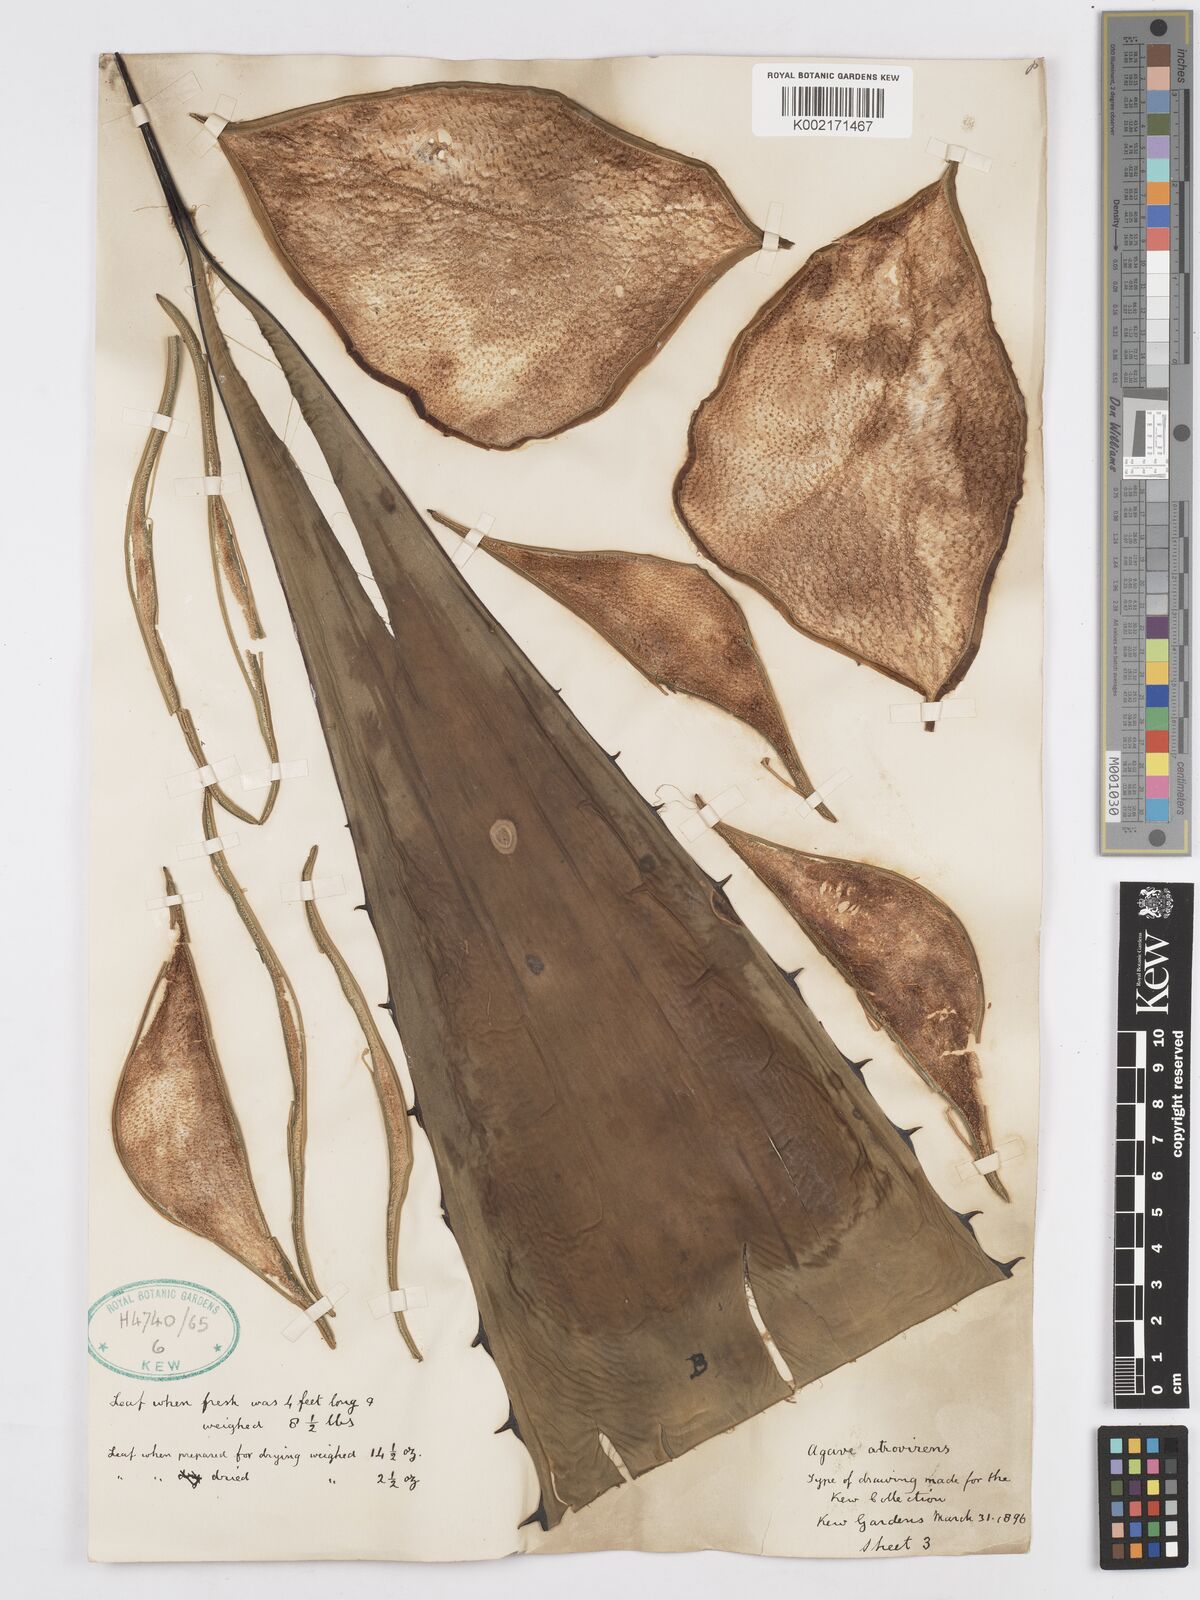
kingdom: Plantae
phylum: Tracheophyta
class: Liliopsida
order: Asparagales
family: Asparagaceae
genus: Agave
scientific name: Agave atrovirens
